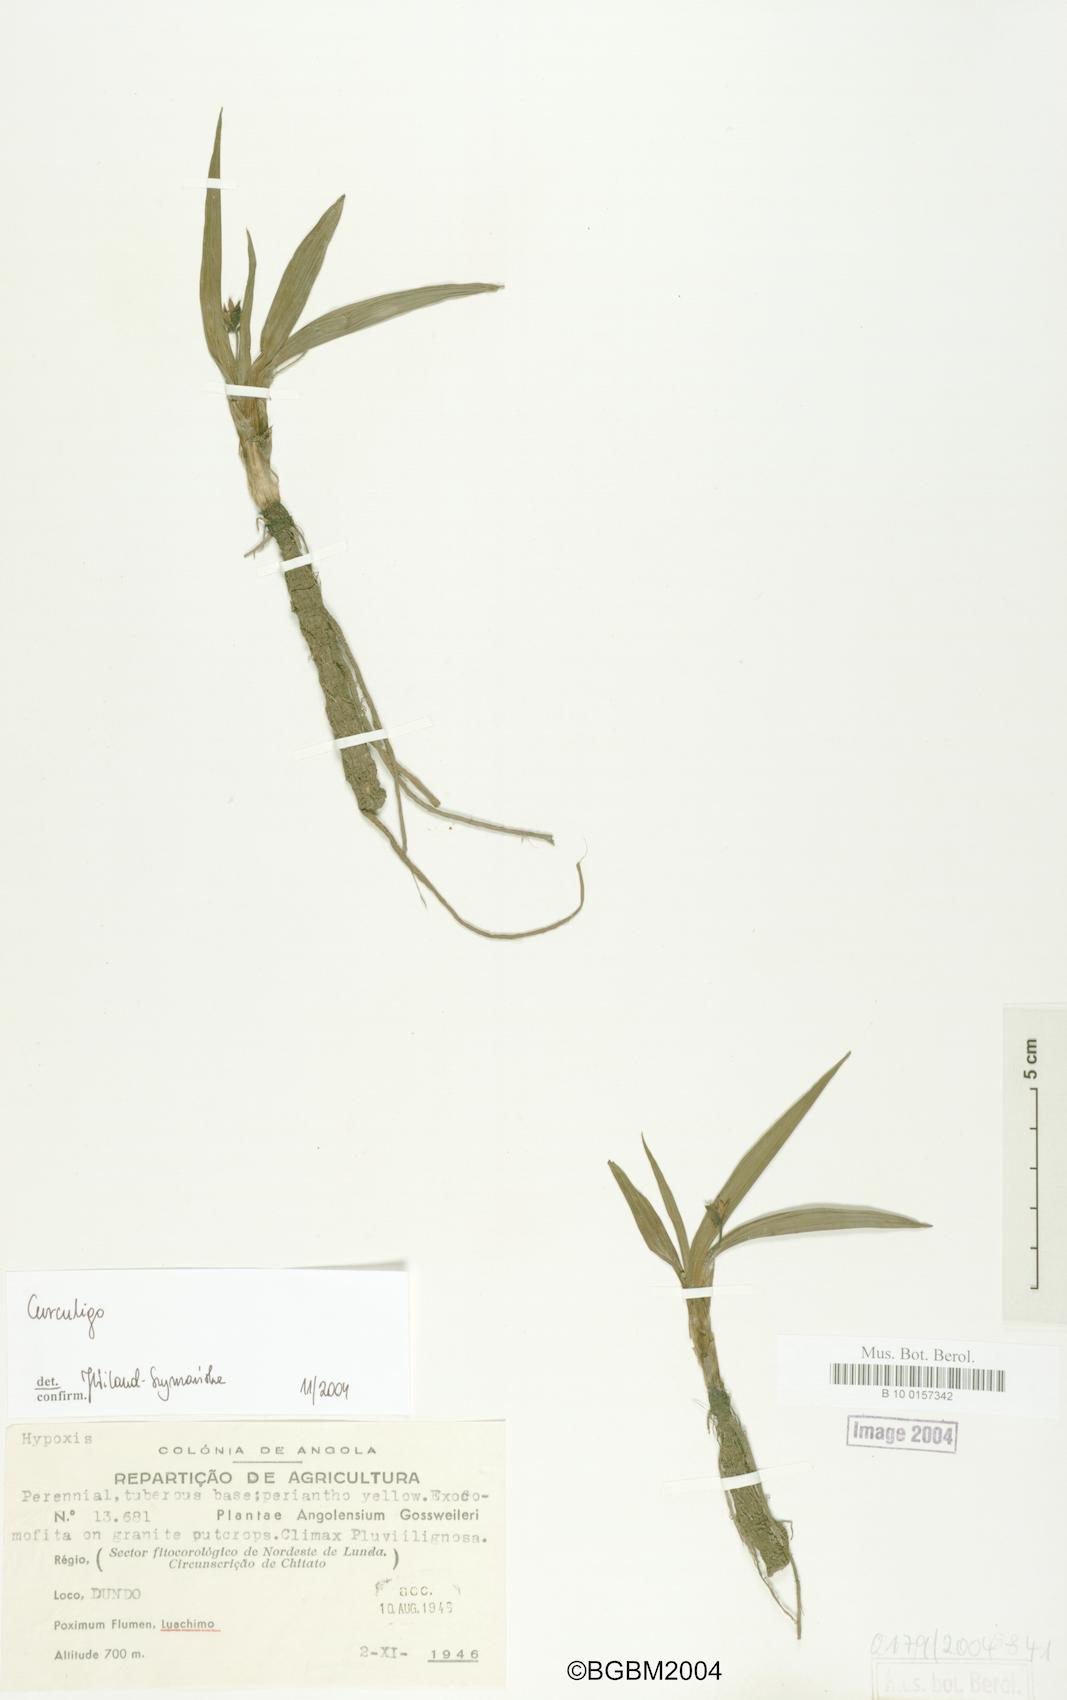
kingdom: Plantae
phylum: Tracheophyta
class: Liliopsida
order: Asparagales
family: Hypoxidaceae
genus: Curculigo
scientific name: Curculigo
